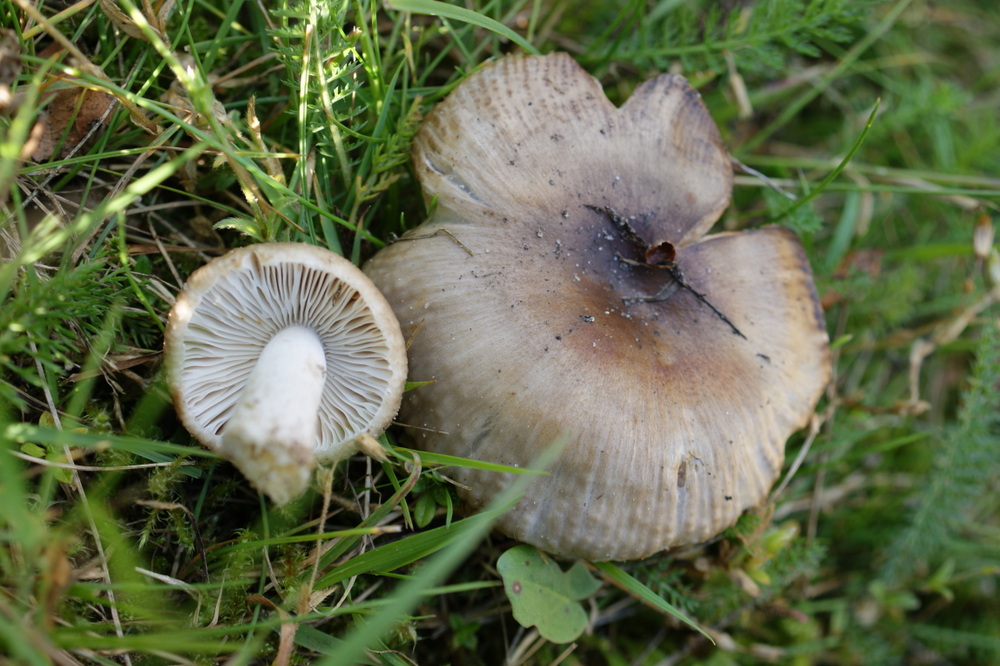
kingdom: Fungi
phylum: Basidiomycota
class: Agaricomycetes
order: Russulales
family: Russulaceae
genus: Russula
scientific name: Russula amoenolens
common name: skarp kam-skørhat
